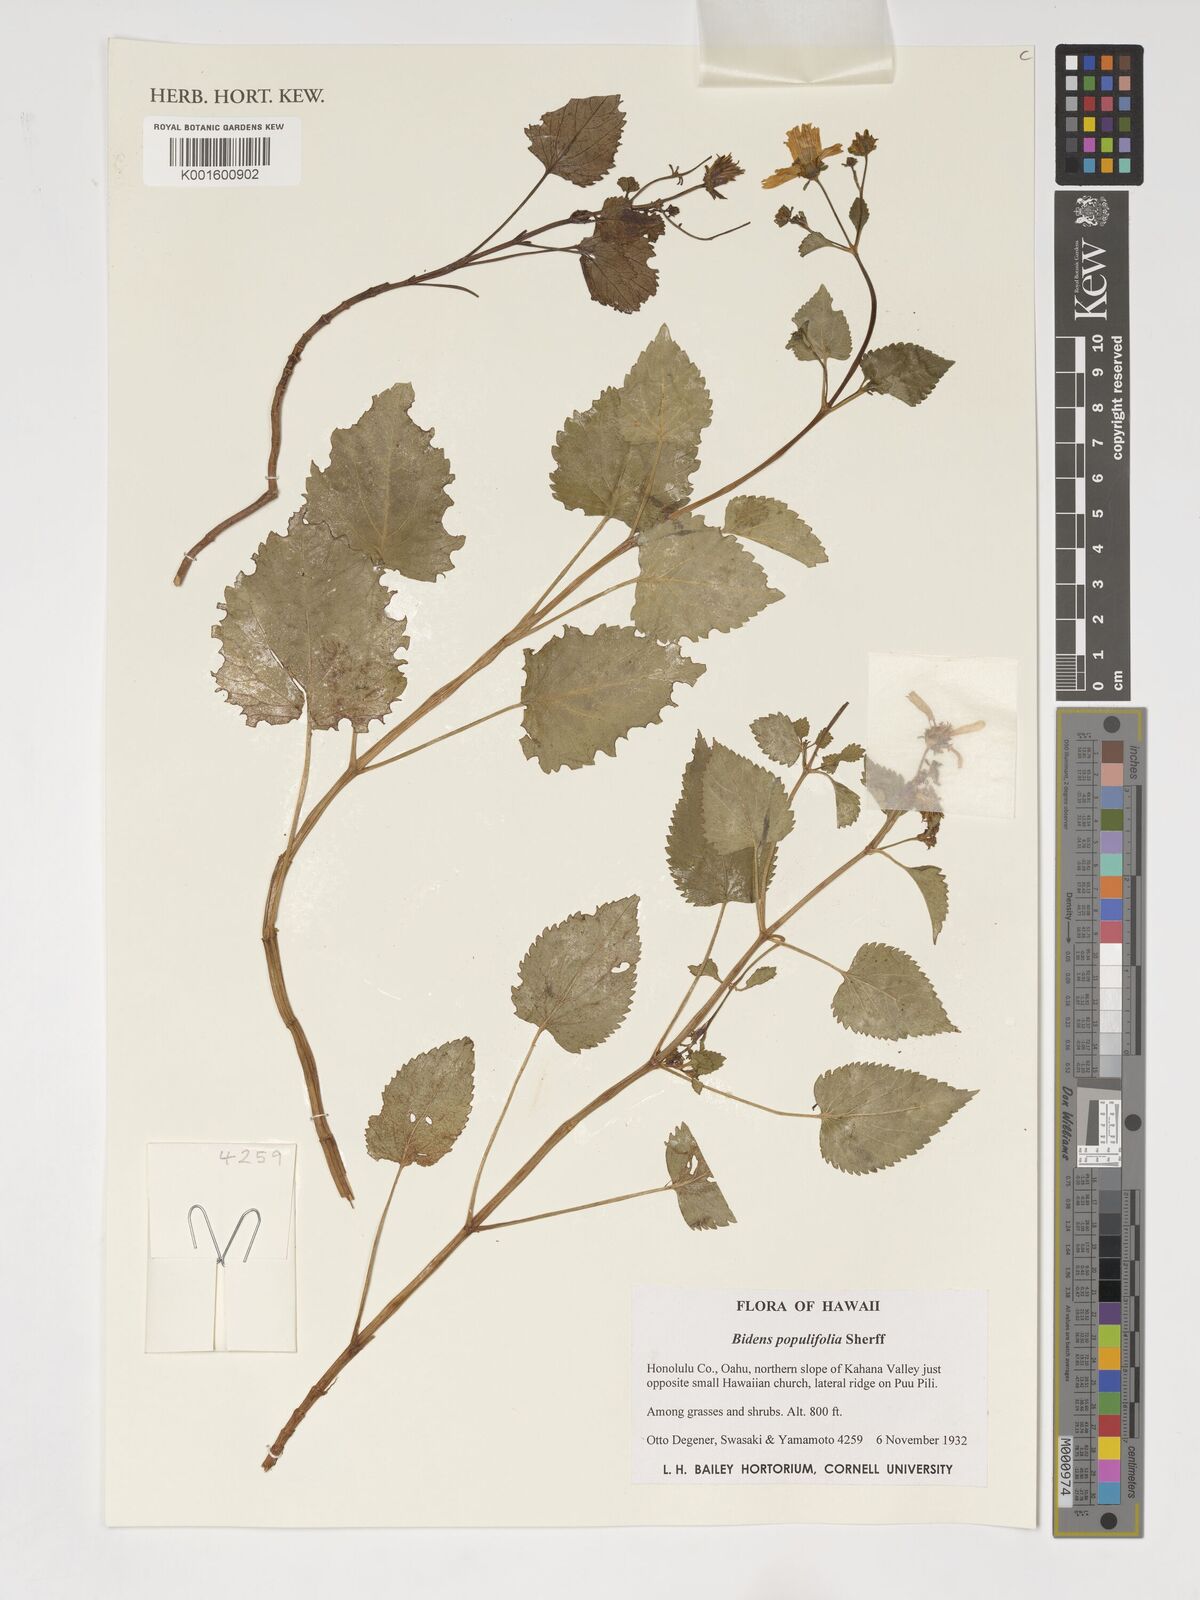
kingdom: Plantae
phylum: Tracheophyta
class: Magnoliopsida
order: Asterales
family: Asteraceae
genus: Bidens
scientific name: Bidens populifolia
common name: Oahu beggarticks
